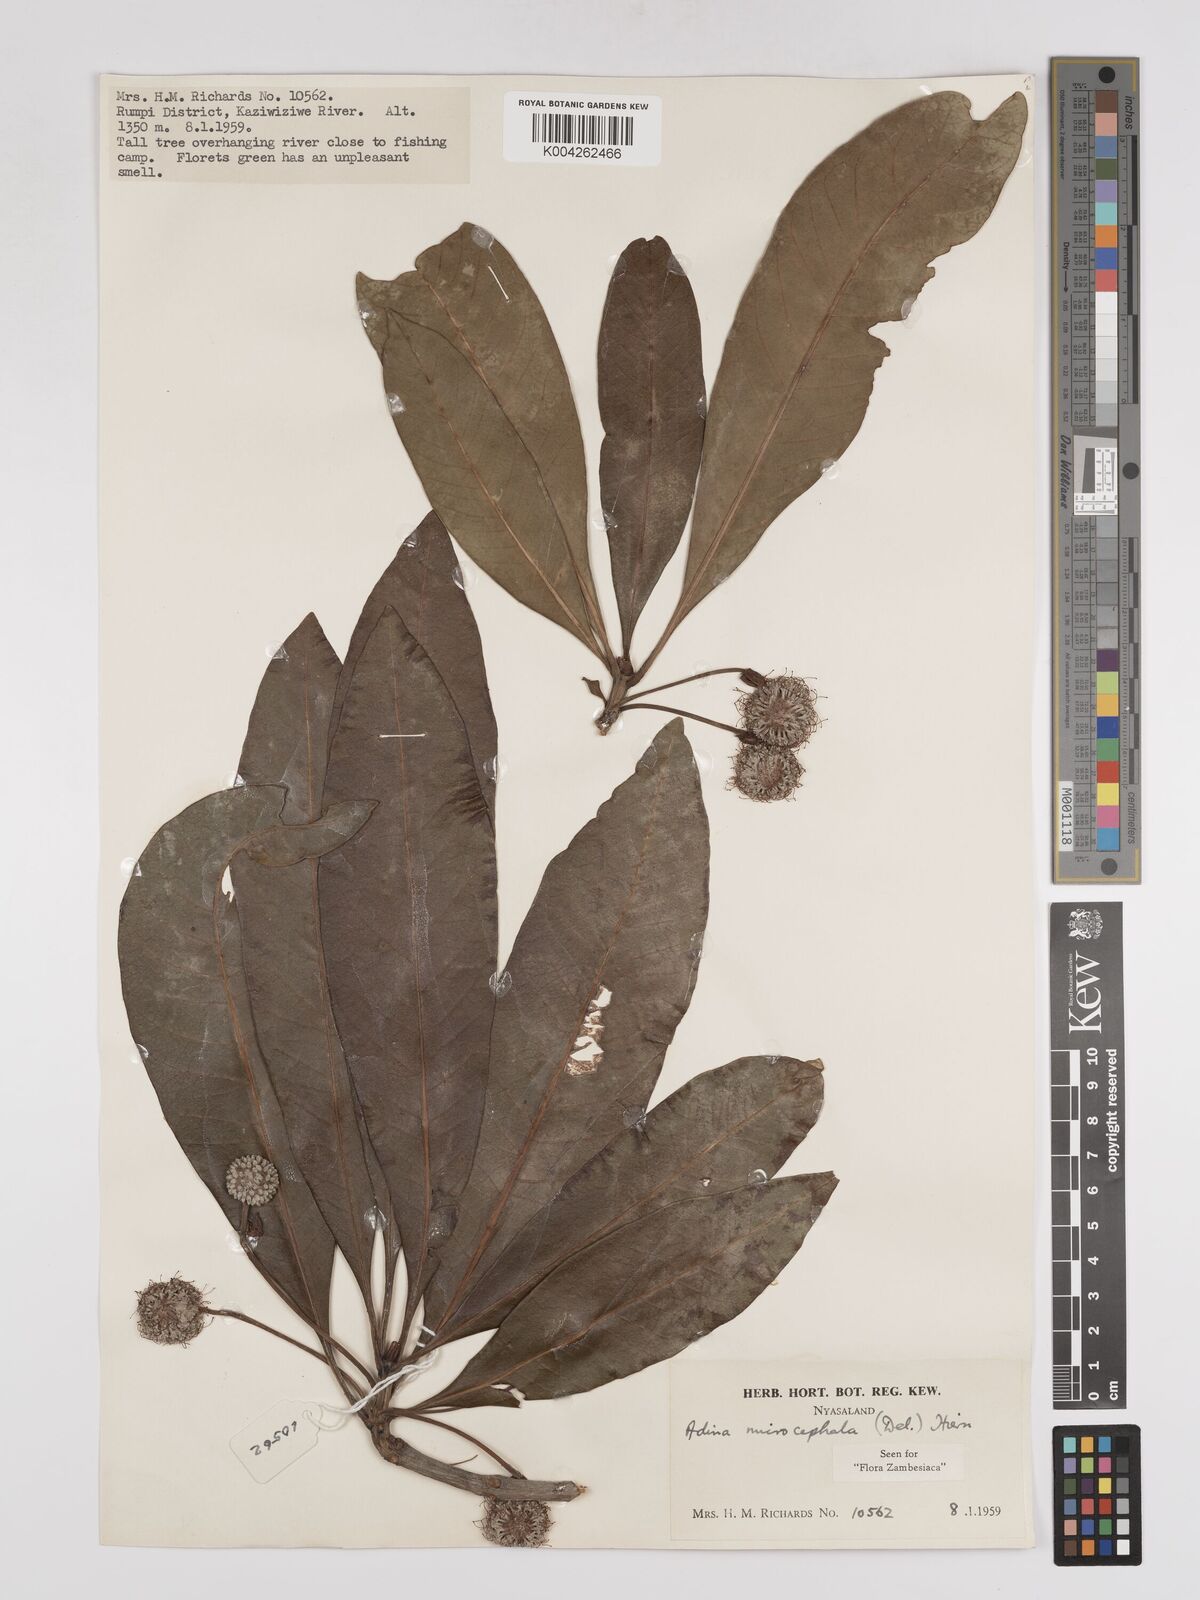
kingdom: Plantae
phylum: Tracheophyta
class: Magnoliopsida
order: Gentianales
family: Rubiaceae
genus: Breonadia
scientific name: Breonadia salicina
